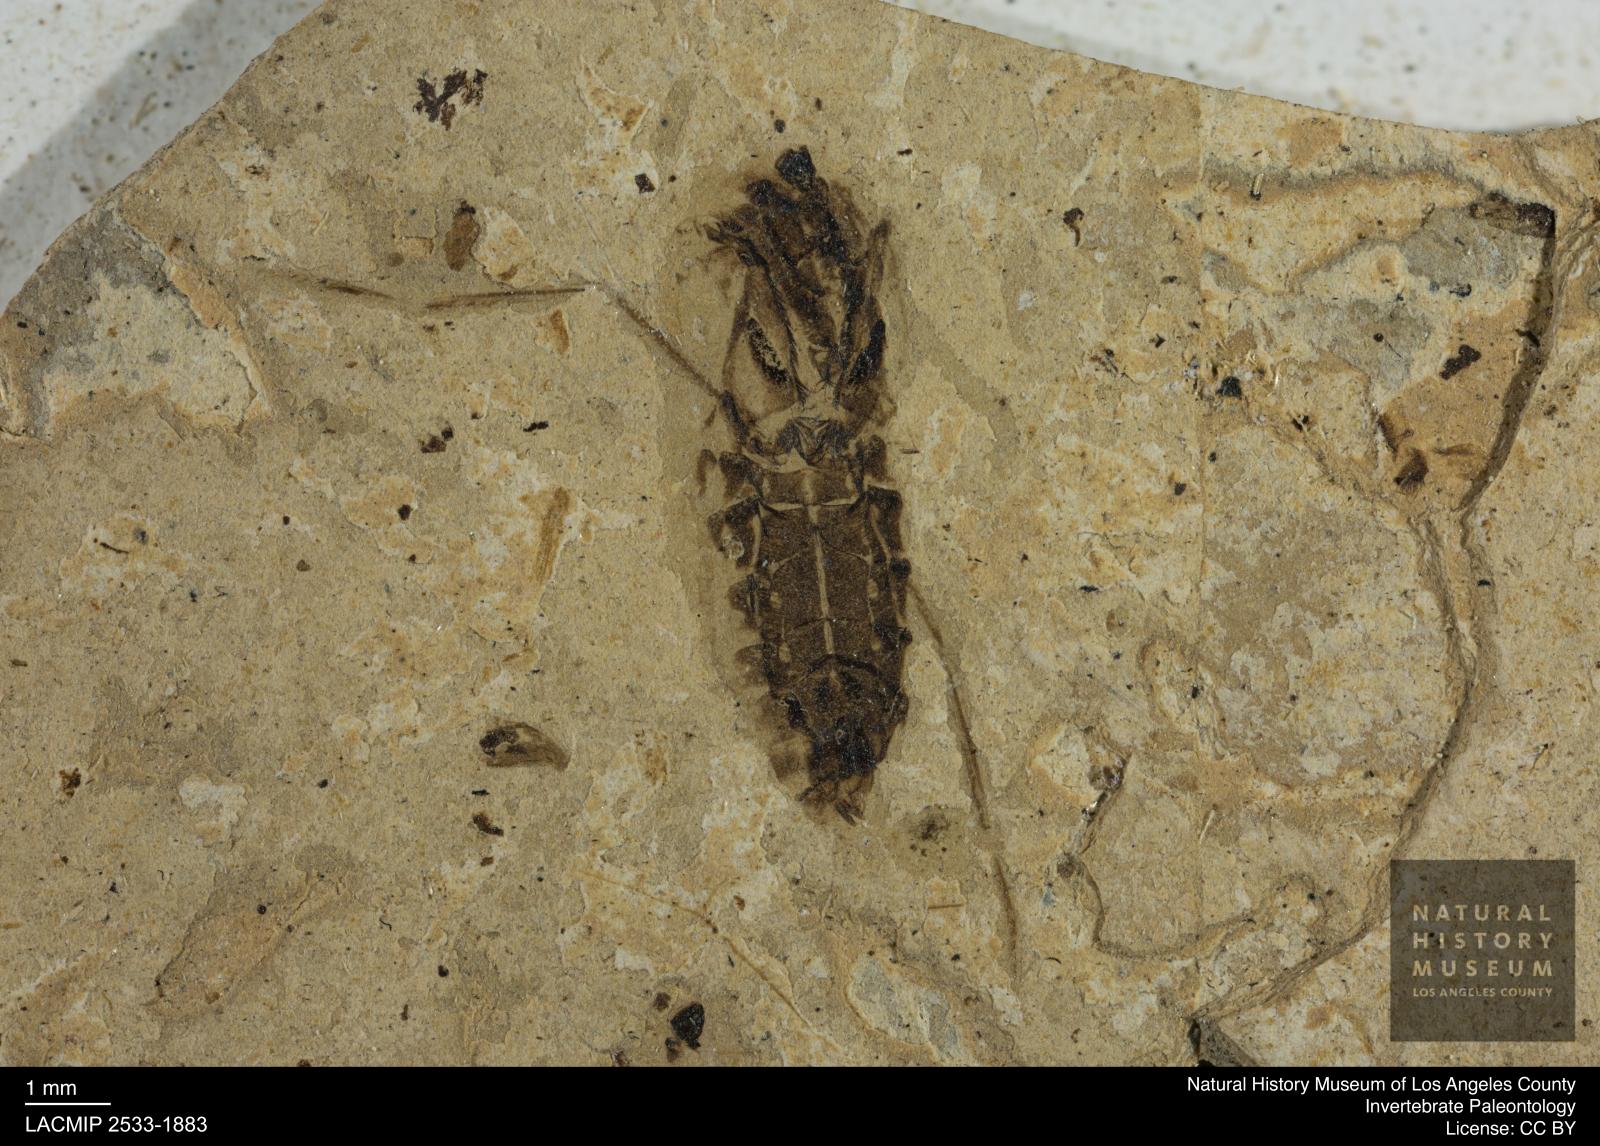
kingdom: Animalia
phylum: Arthropoda
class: Insecta
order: Hemiptera
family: Notonectidae
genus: Anisops
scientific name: Anisops Notonecta deichmuelleri
